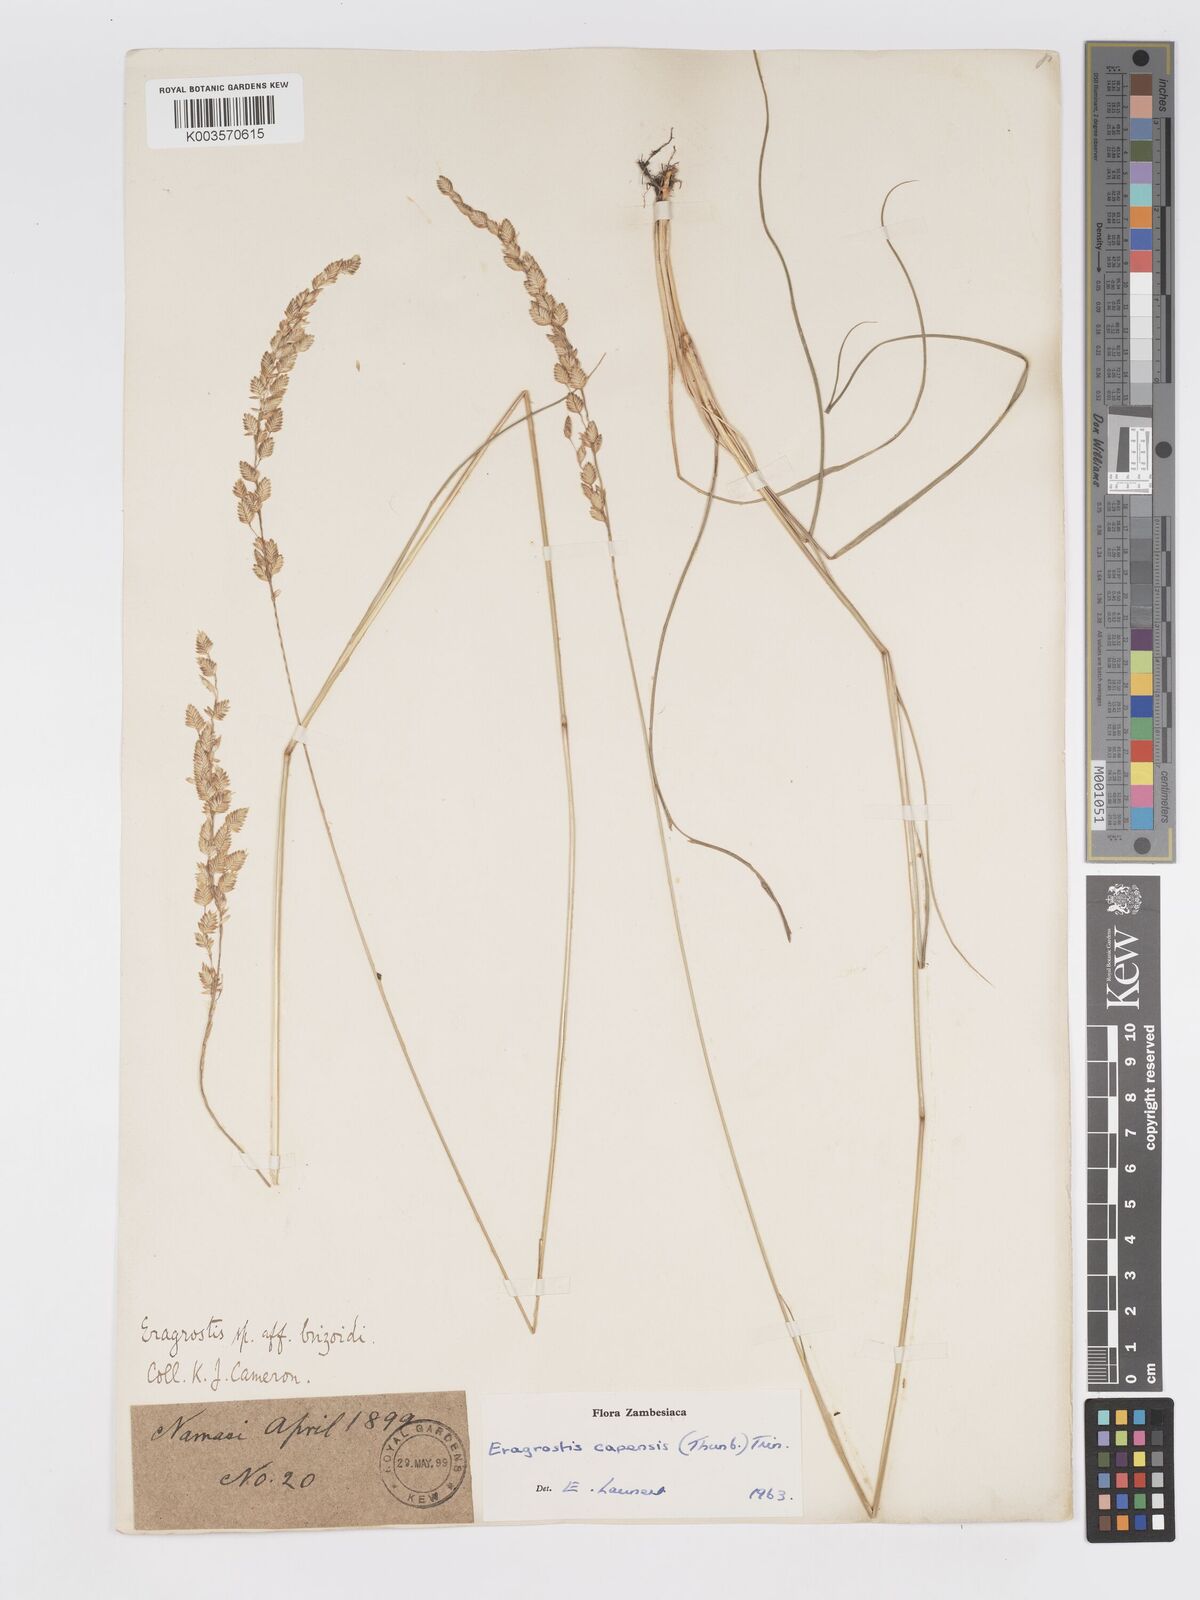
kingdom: Plantae
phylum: Tracheophyta
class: Liliopsida
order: Poales
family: Poaceae
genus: Eragrostis
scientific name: Eragrostis capensis
